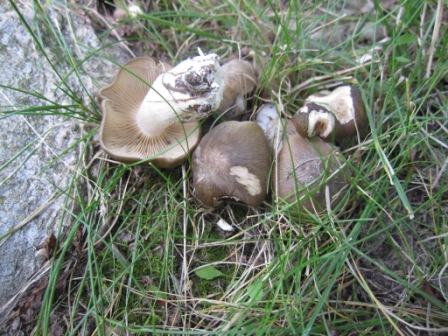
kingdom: Fungi
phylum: Basidiomycota
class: Agaricomycetes
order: Agaricales
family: Lyophyllaceae
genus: Lyophyllum
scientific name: Lyophyllum decastes
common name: røggrå gråblad
